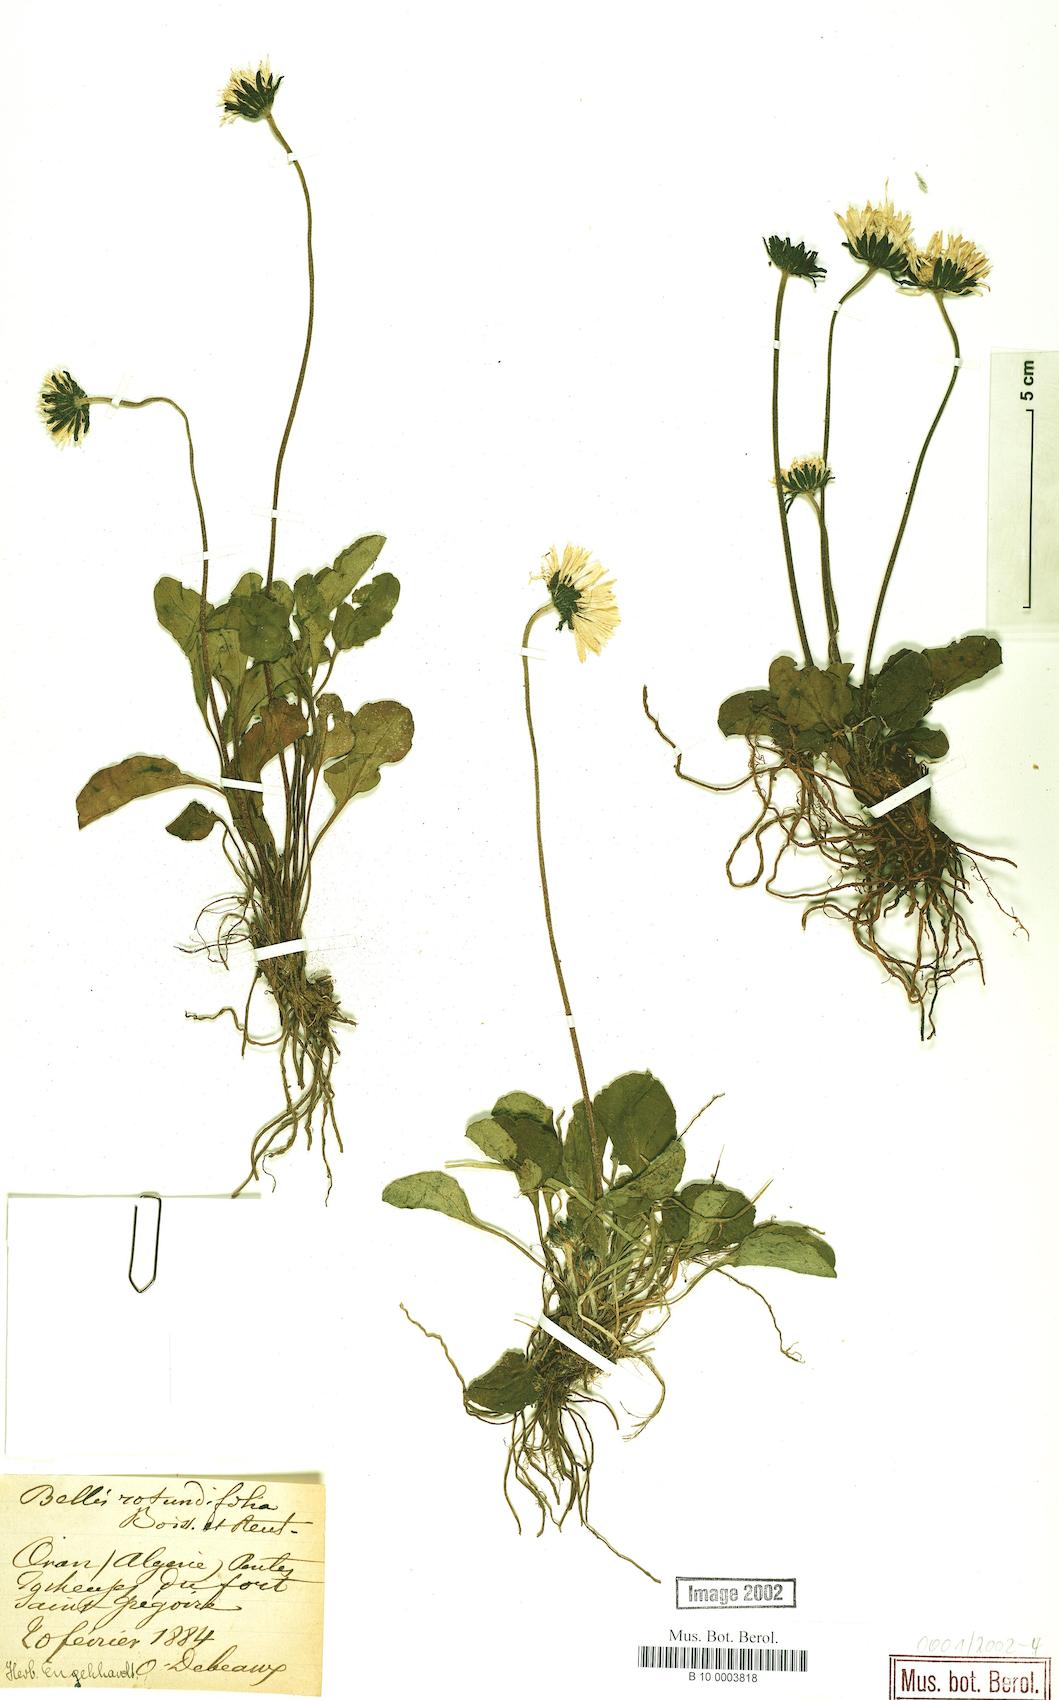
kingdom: Plantae
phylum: Tracheophyta
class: Magnoliopsida
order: Asterales
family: Asteraceae
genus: Bellis
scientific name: Bellis rotundifolia
